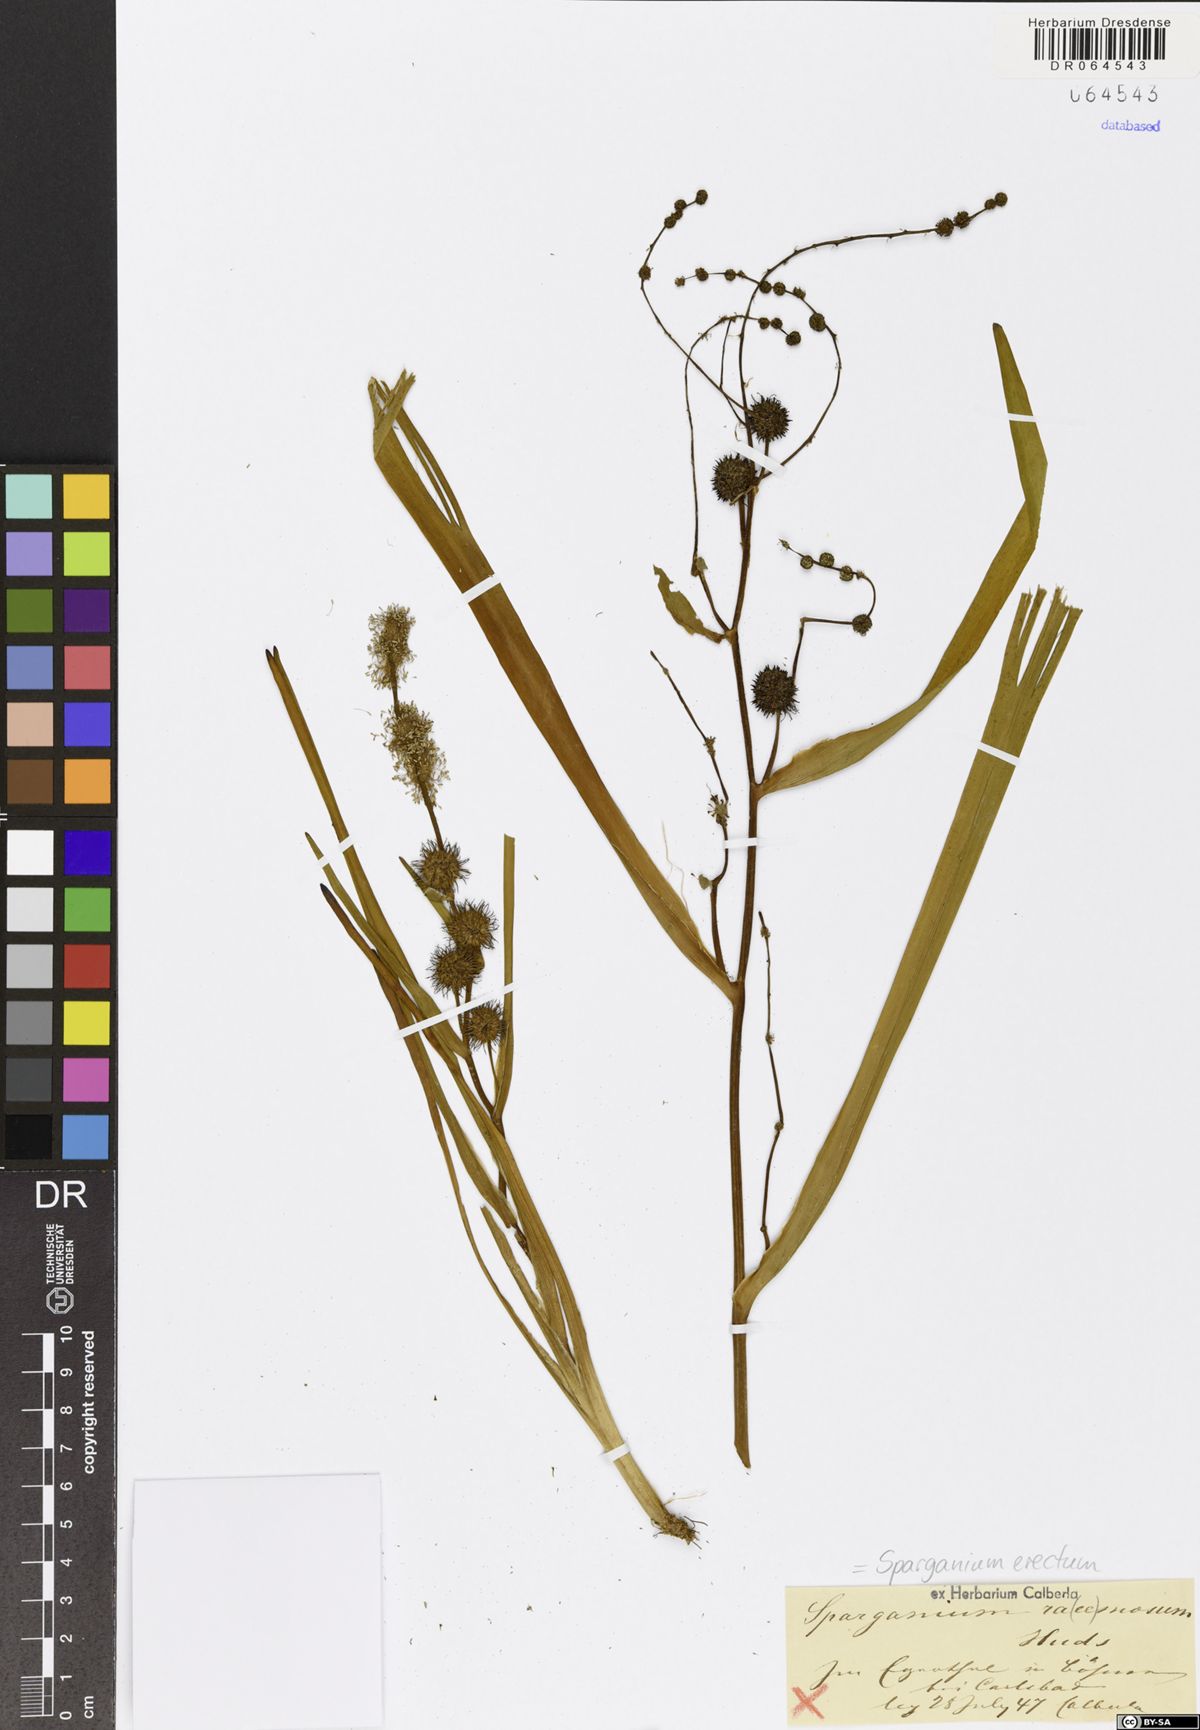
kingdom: Plantae
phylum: Tracheophyta
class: Liliopsida
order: Poales
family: Typhaceae
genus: Sparganium
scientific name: Sparganium erectum
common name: Branched bur-reed
